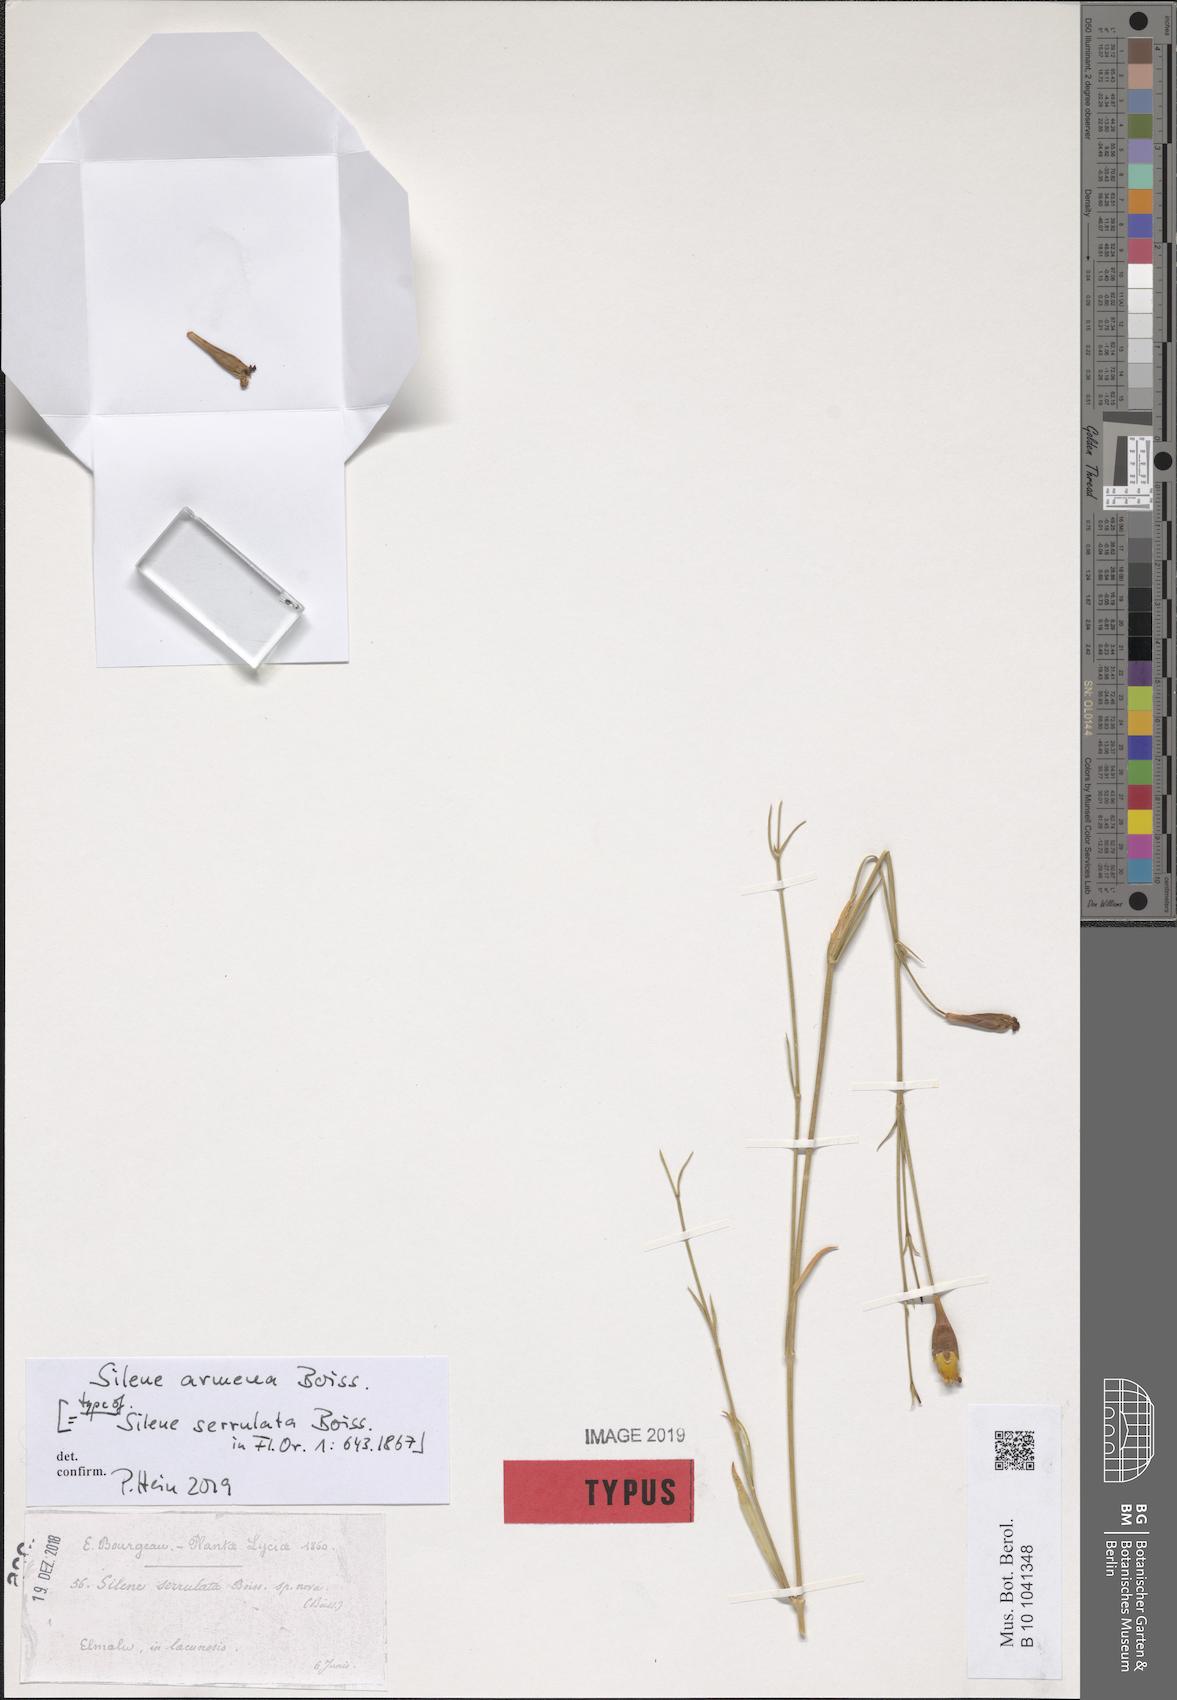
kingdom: Plantae
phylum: Tracheophyta
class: Magnoliopsida
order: Caryophyllales
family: Caryophyllaceae
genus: Silene
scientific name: Silene armena
